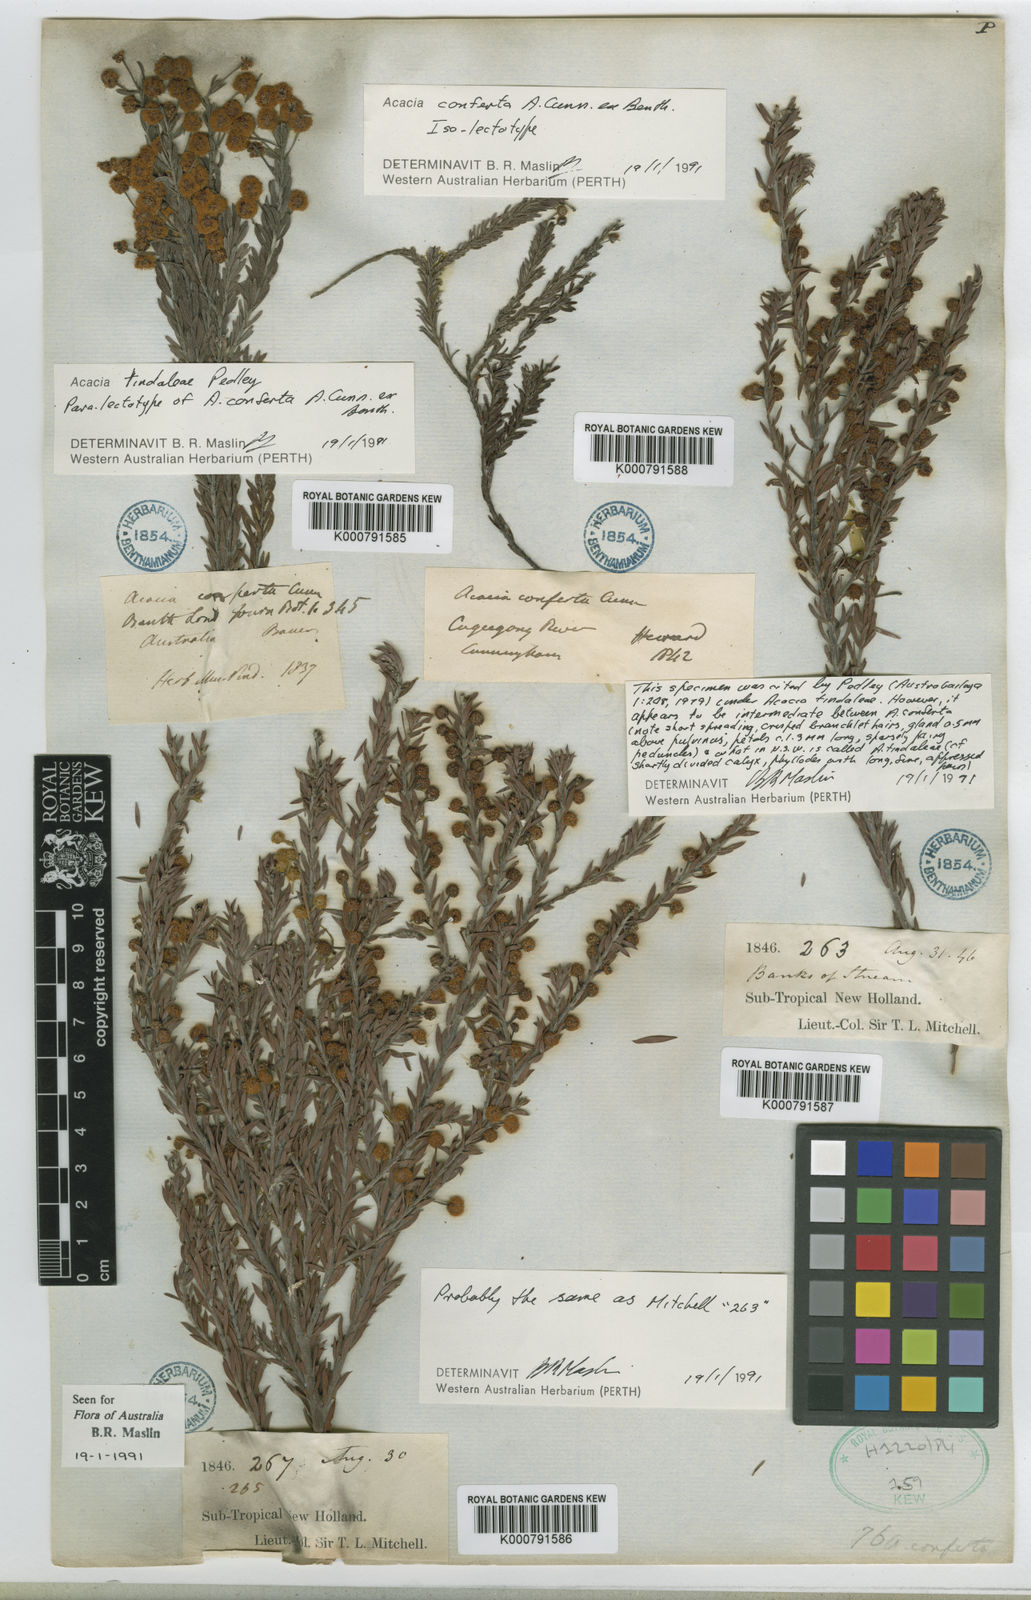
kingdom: Plantae
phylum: Tracheophyta
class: Magnoliopsida
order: Fabales
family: Fabaceae
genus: Acacia
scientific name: Acacia conferta
